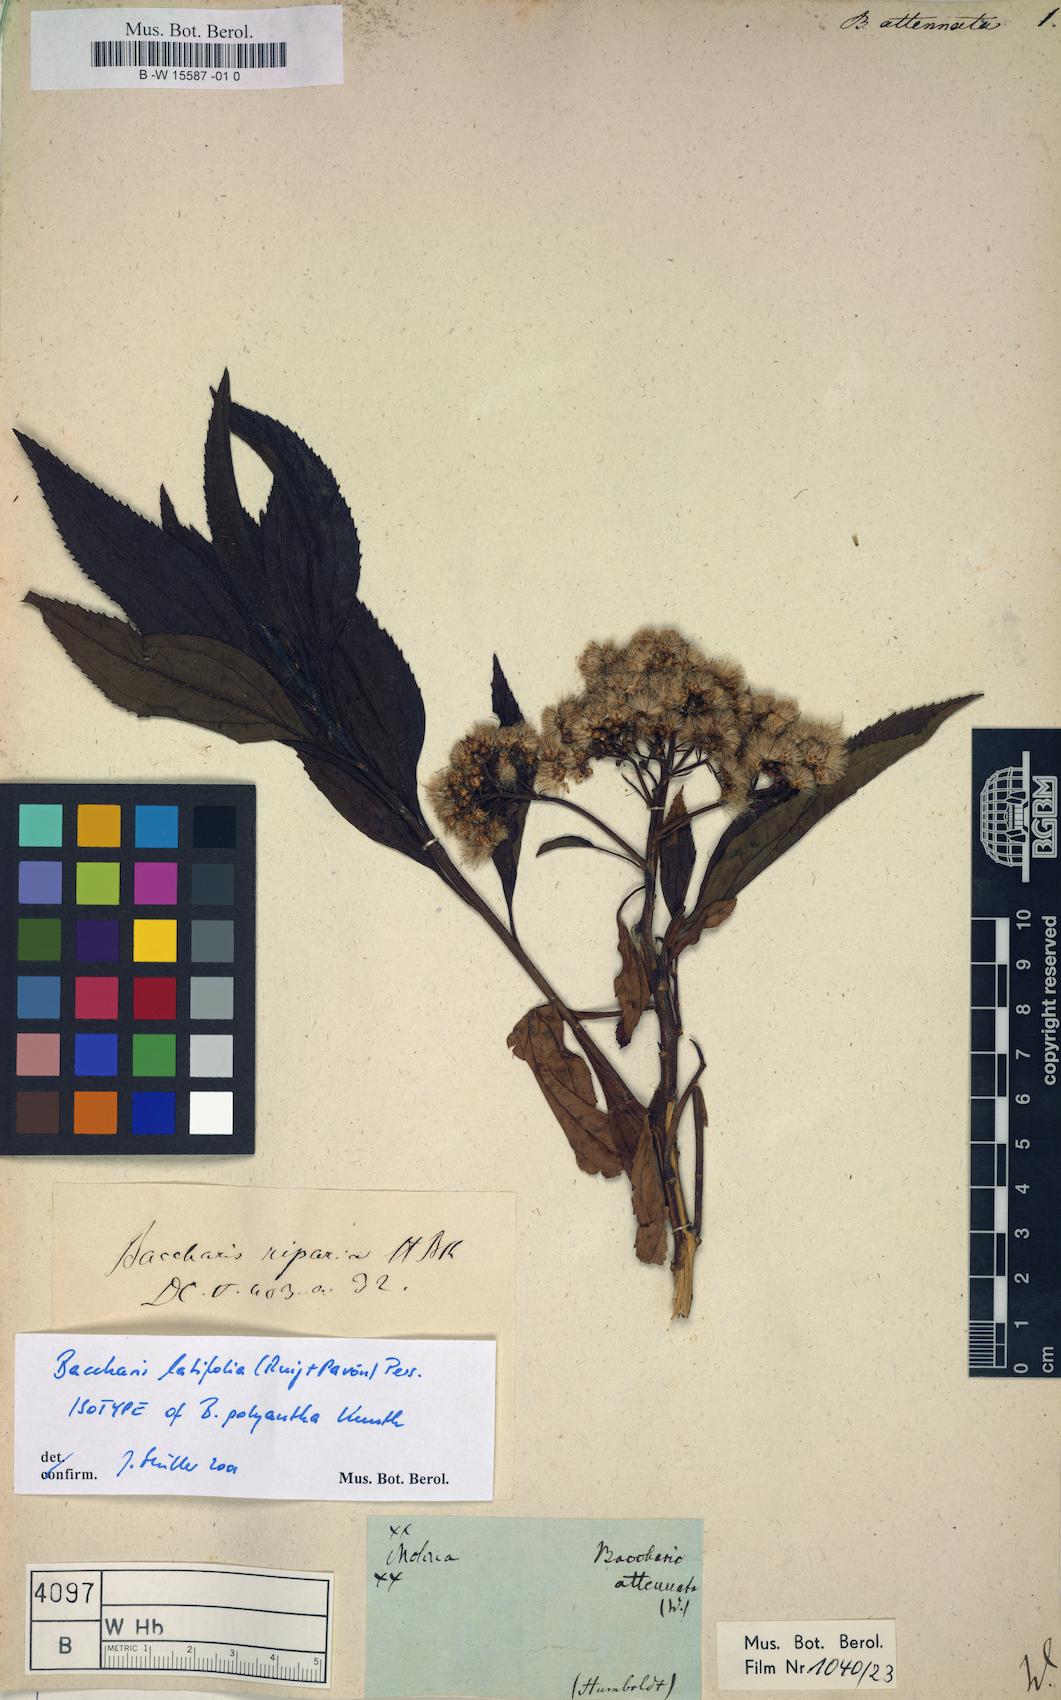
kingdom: Plantae
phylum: Tracheophyta
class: Magnoliopsida
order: Asterales
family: Asteraceae
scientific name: Asteraceae
